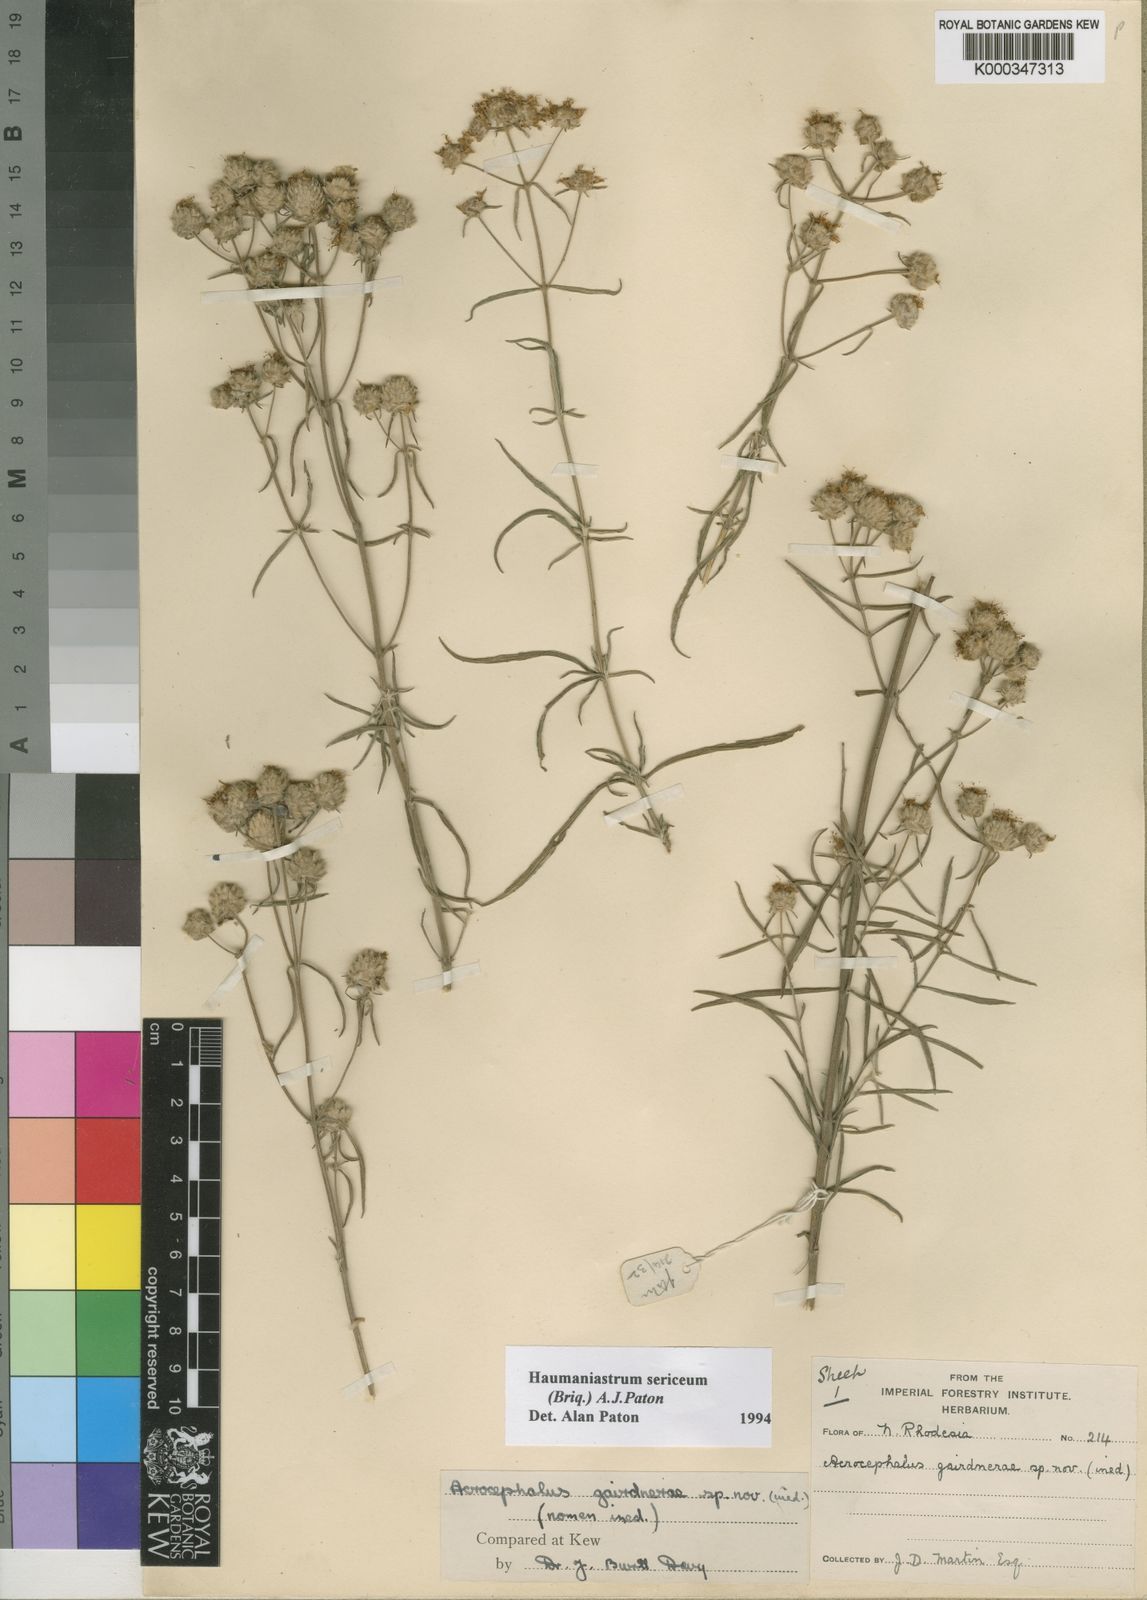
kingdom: Plantae
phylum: Tracheophyta
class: Magnoliopsida
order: Lamiales
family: Lamiaceae
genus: Haumaniastrum
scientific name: Haumaniastrum sericeum
